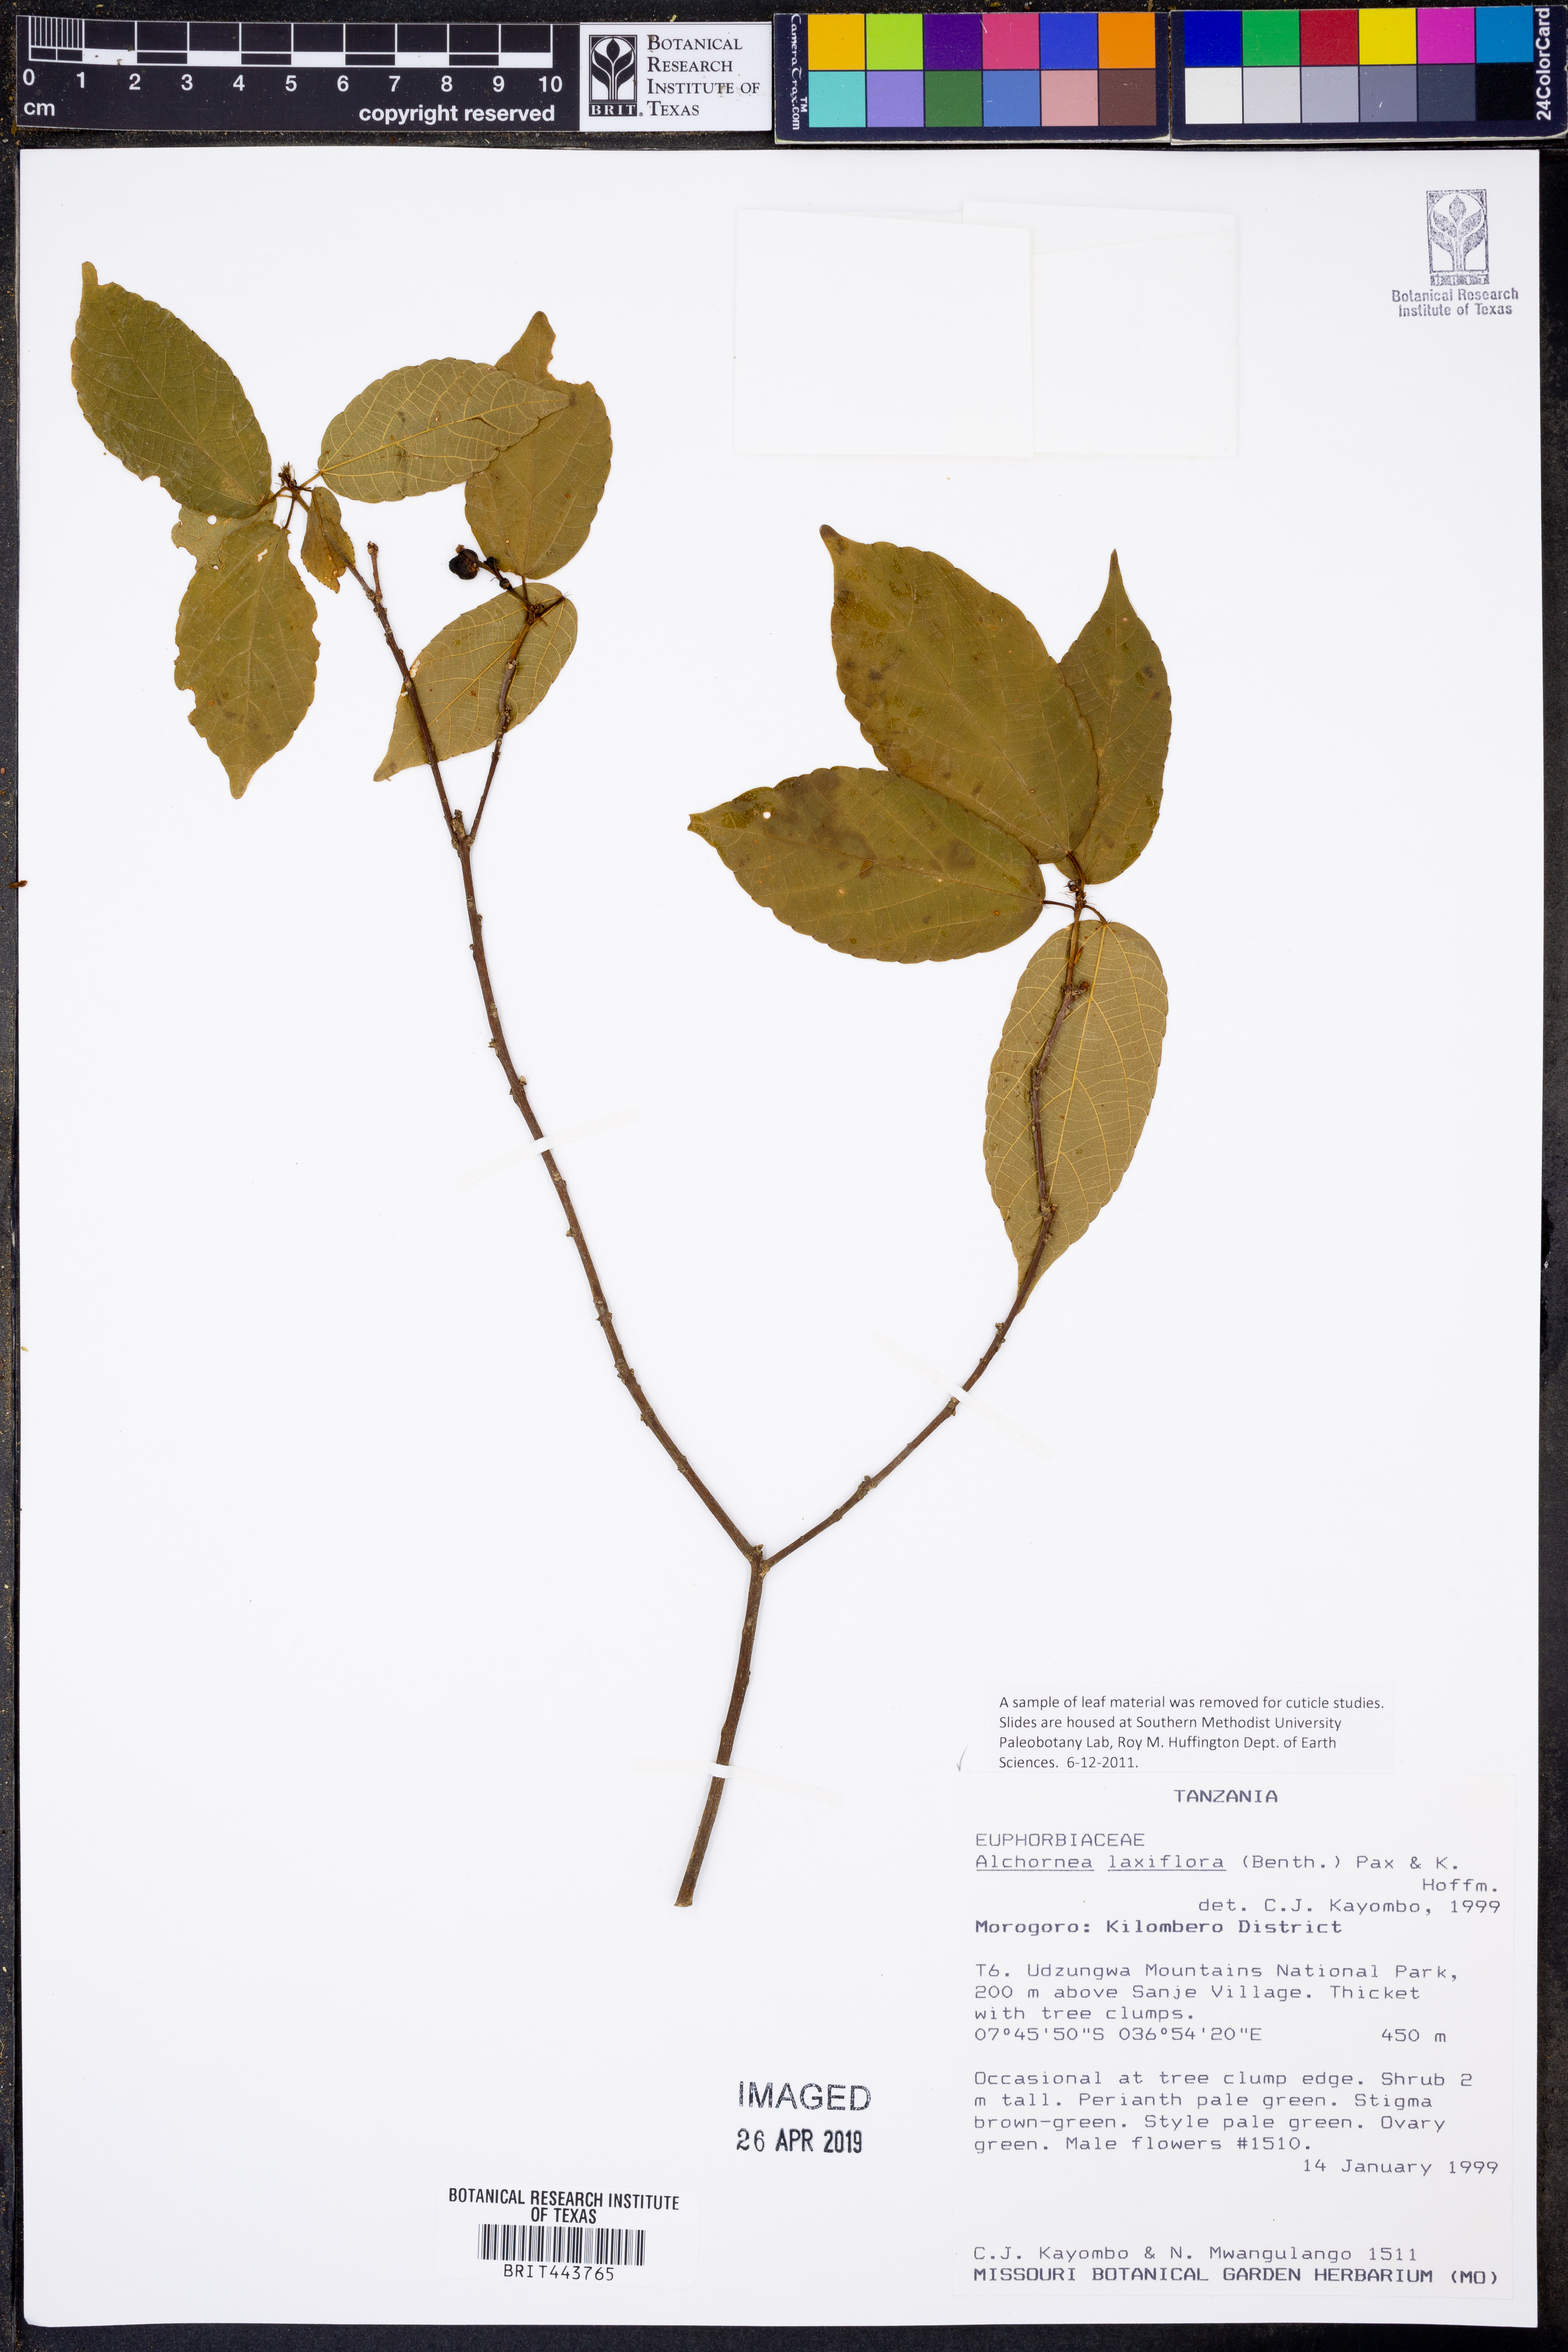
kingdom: Plantae
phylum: Tracheophyta
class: Magnoliopsida
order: Malpighiales
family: Euphorbiaceae
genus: Alchornea
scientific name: Alchornea laxiflora
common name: Lowveld bead-string
